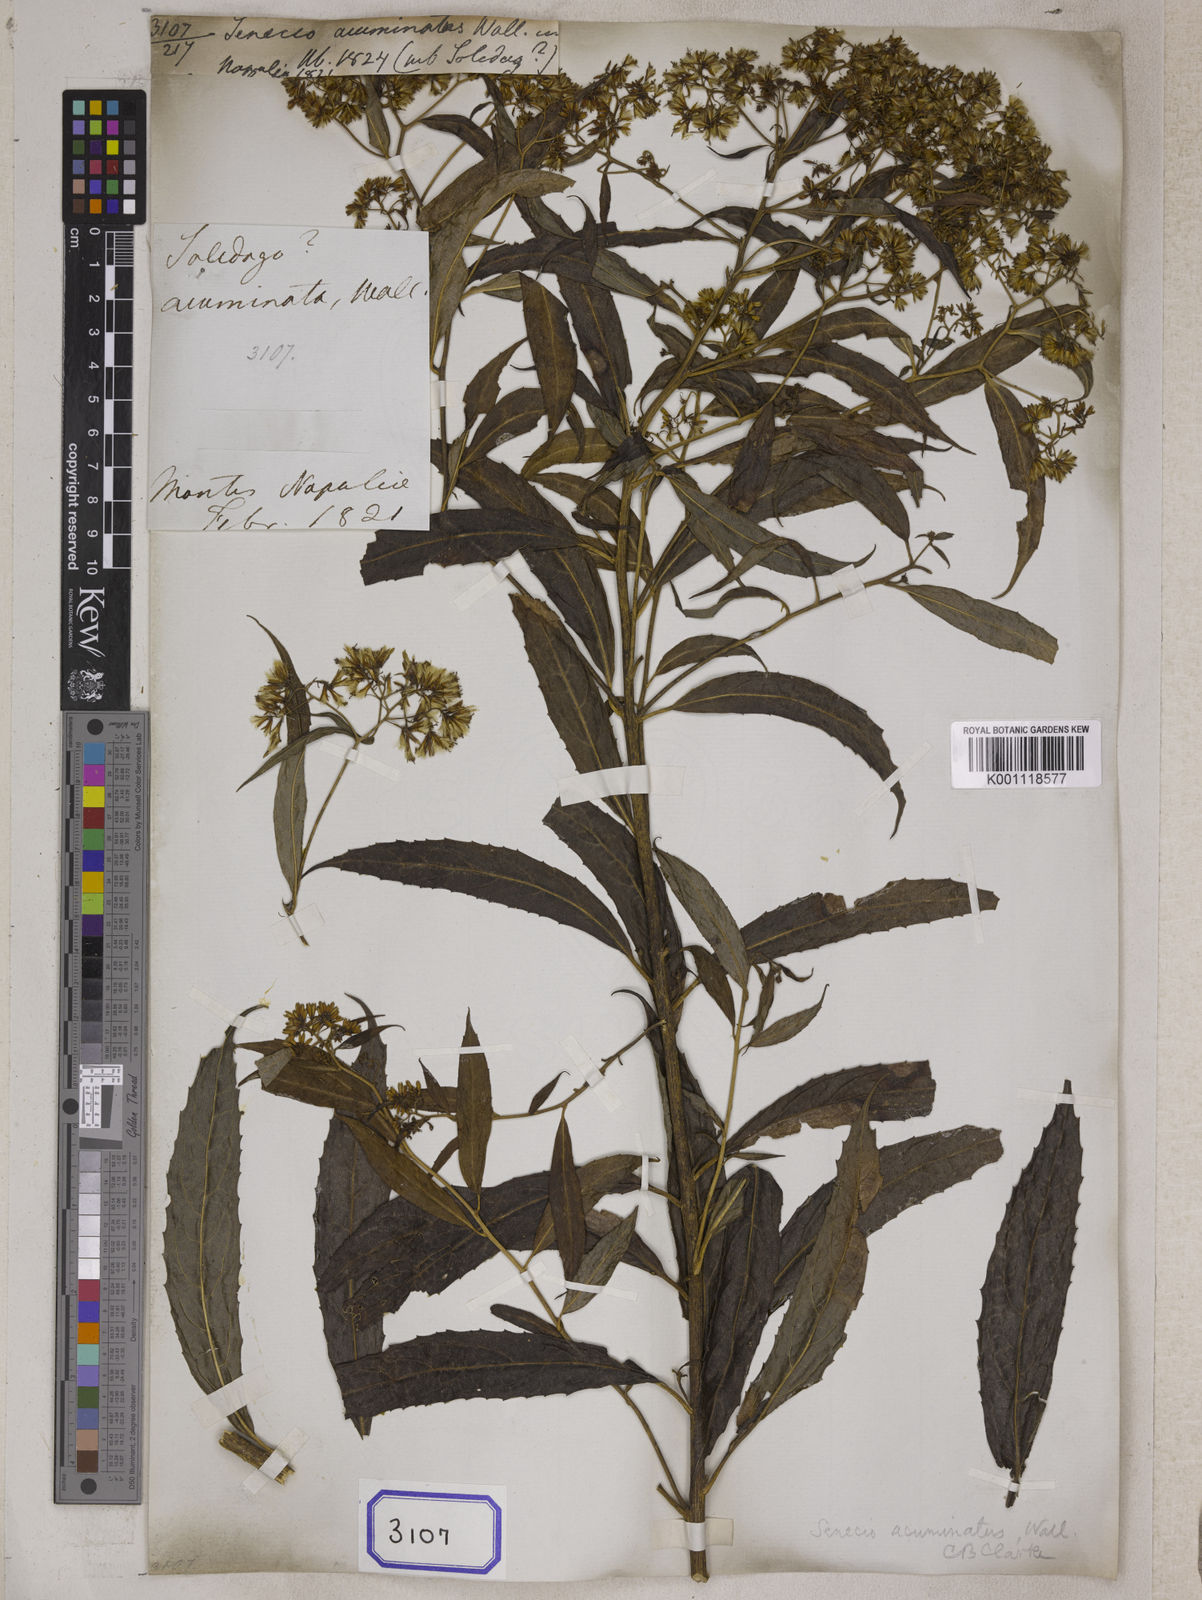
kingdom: Plantae
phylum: Tracheophyta
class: Magnoliopsida
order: Asterales
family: Asteraceae
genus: Synotis
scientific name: Synotis acuminata
